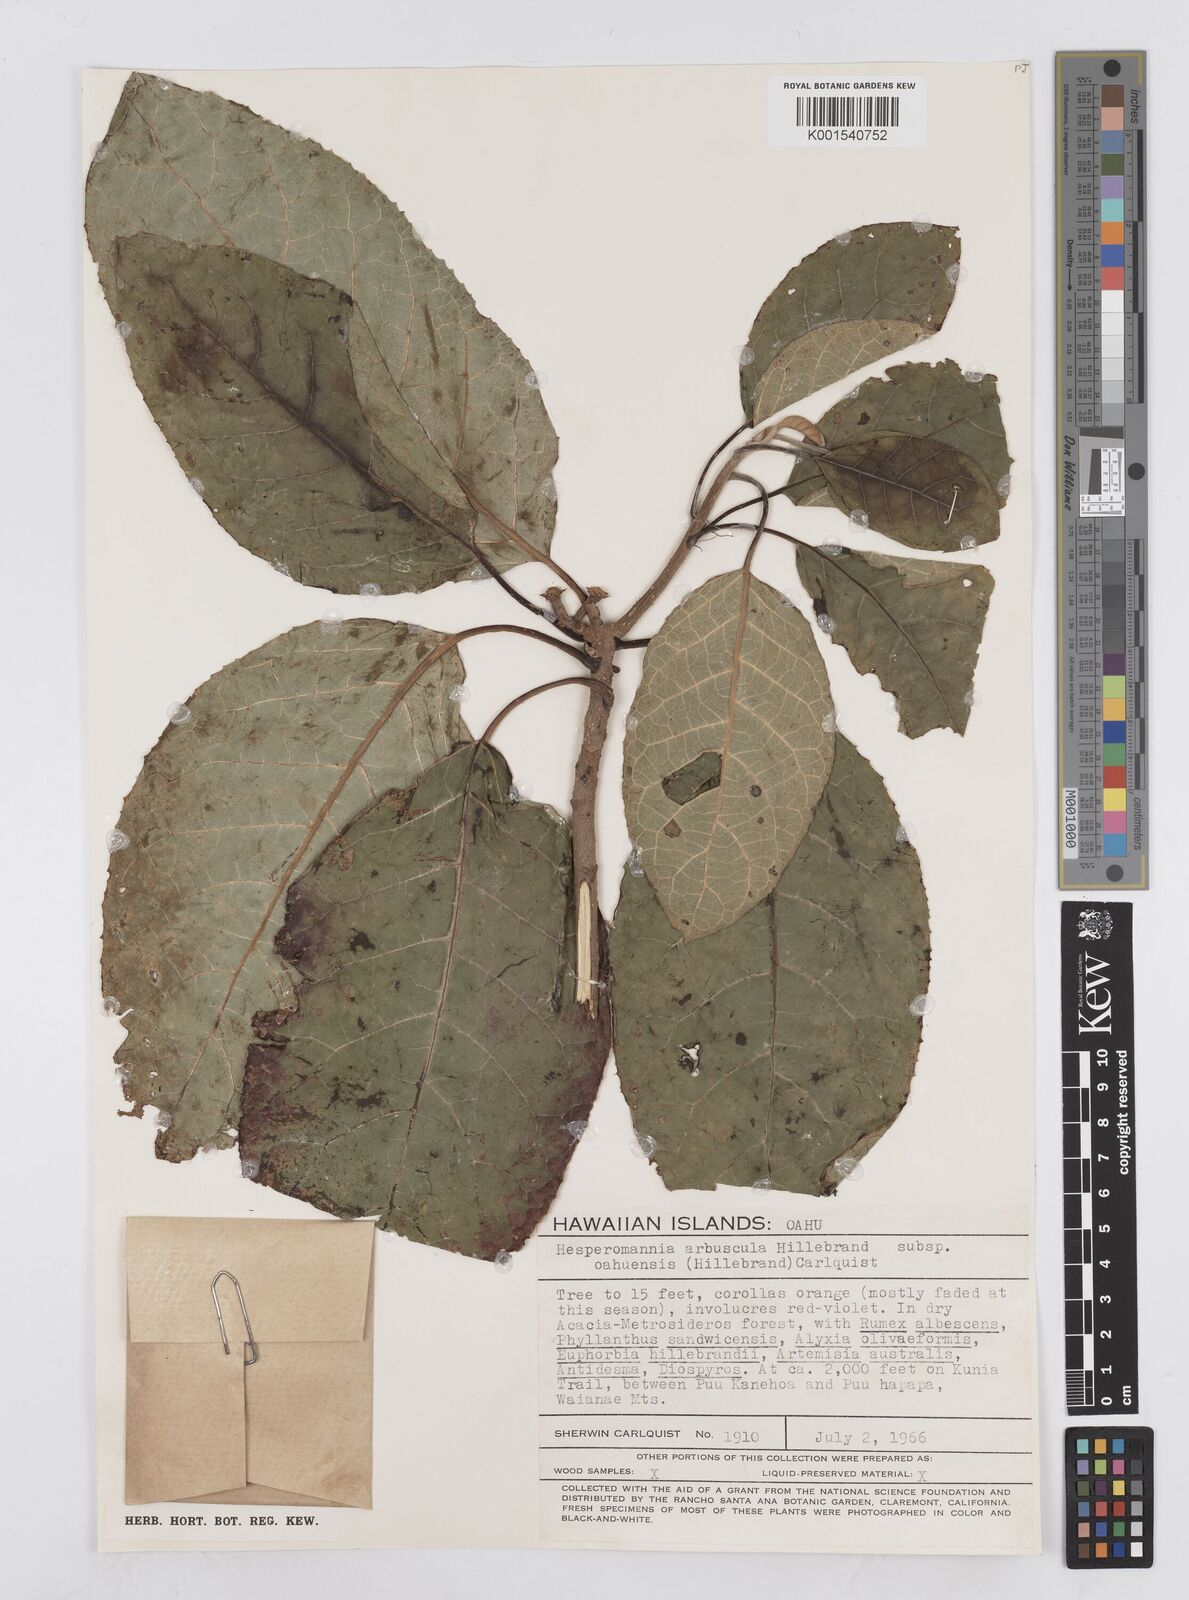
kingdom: Plantae
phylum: Tracheophyta
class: Magnoliopsida
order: Asterales
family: Asteraceae
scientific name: Asteraceae
